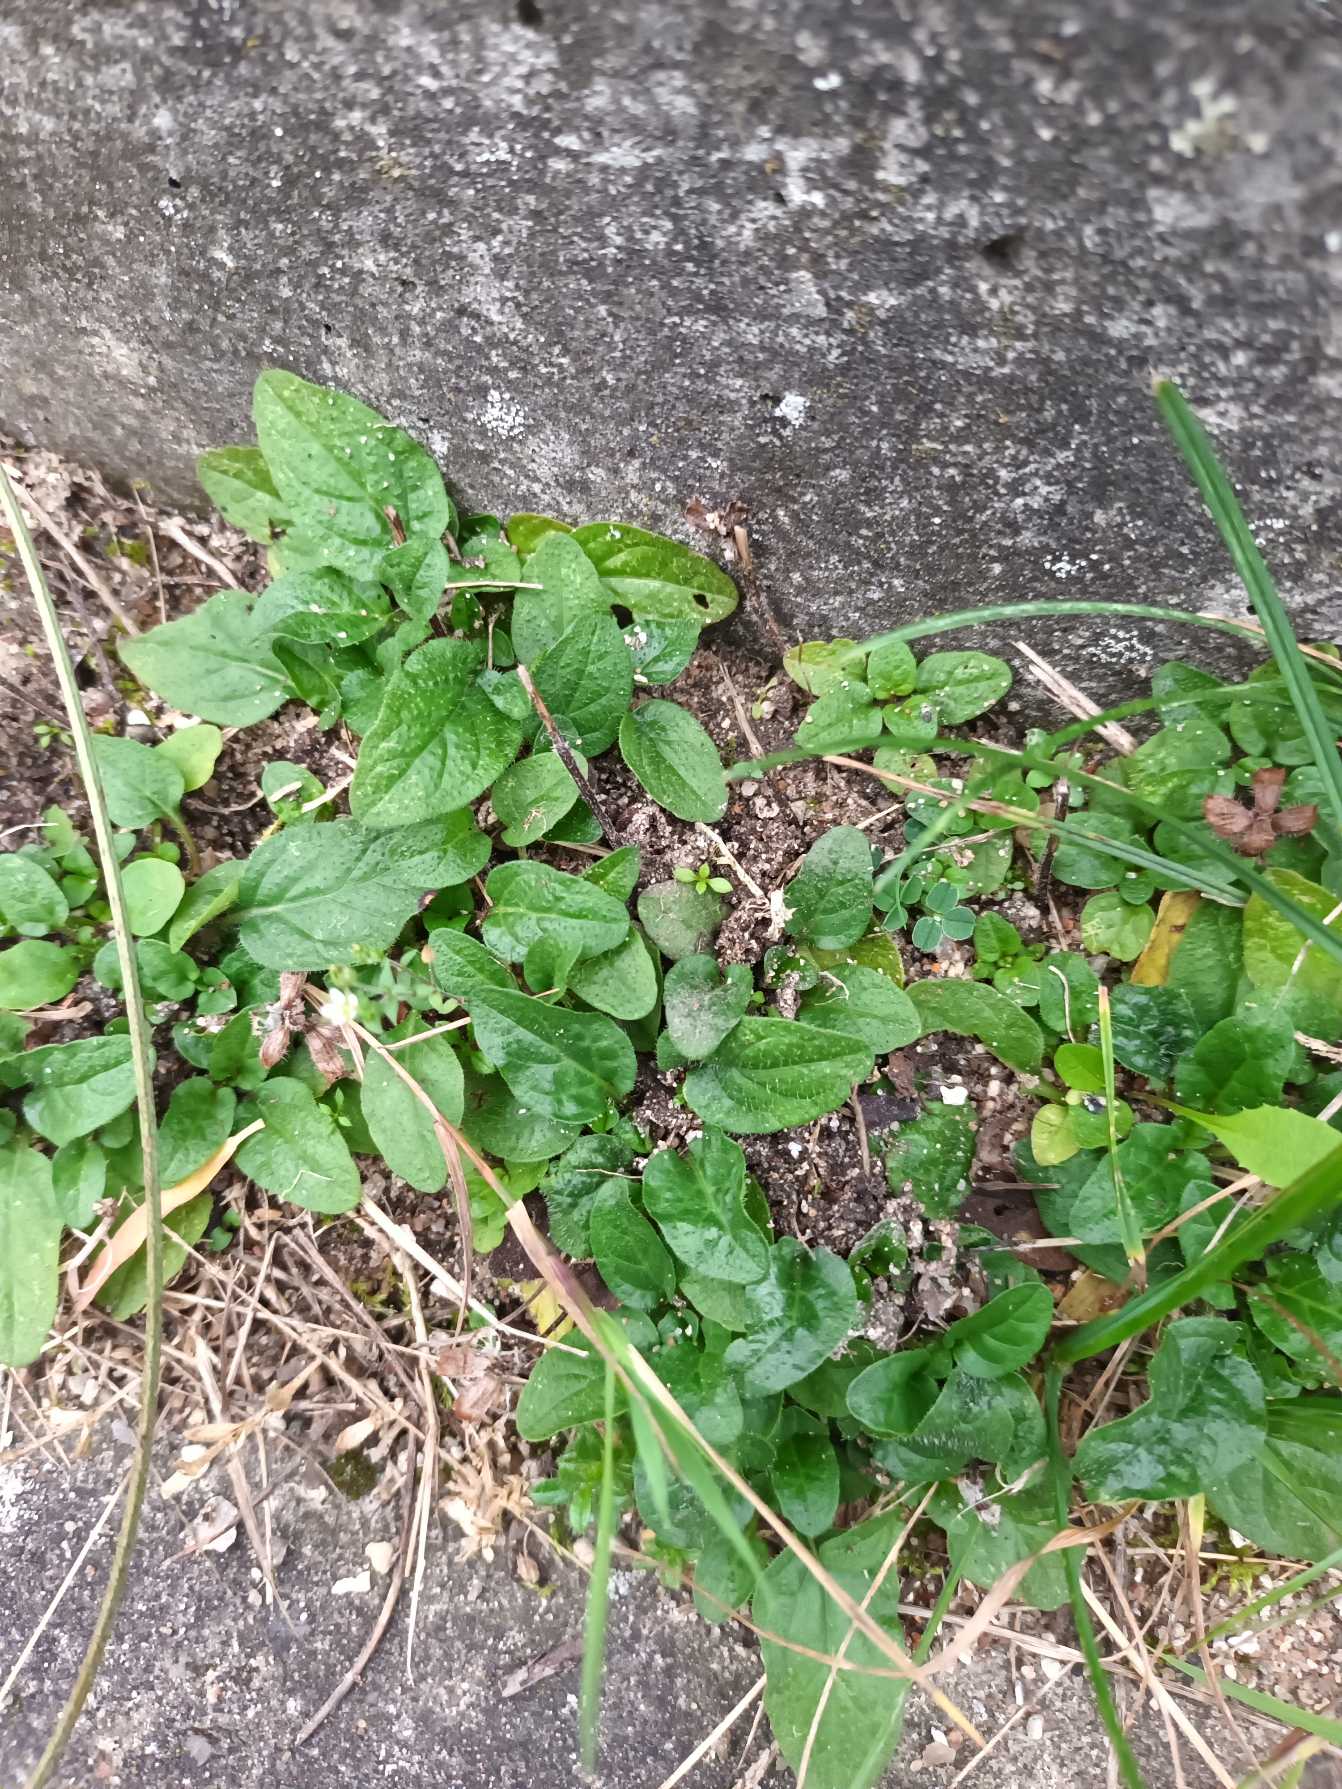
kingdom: Plantae
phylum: Tracheophyta
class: Magnoliopsida
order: Lamiales
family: Lamiaceae
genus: Prunella
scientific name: Prunella vulgaris
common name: Almindelig brunelle
